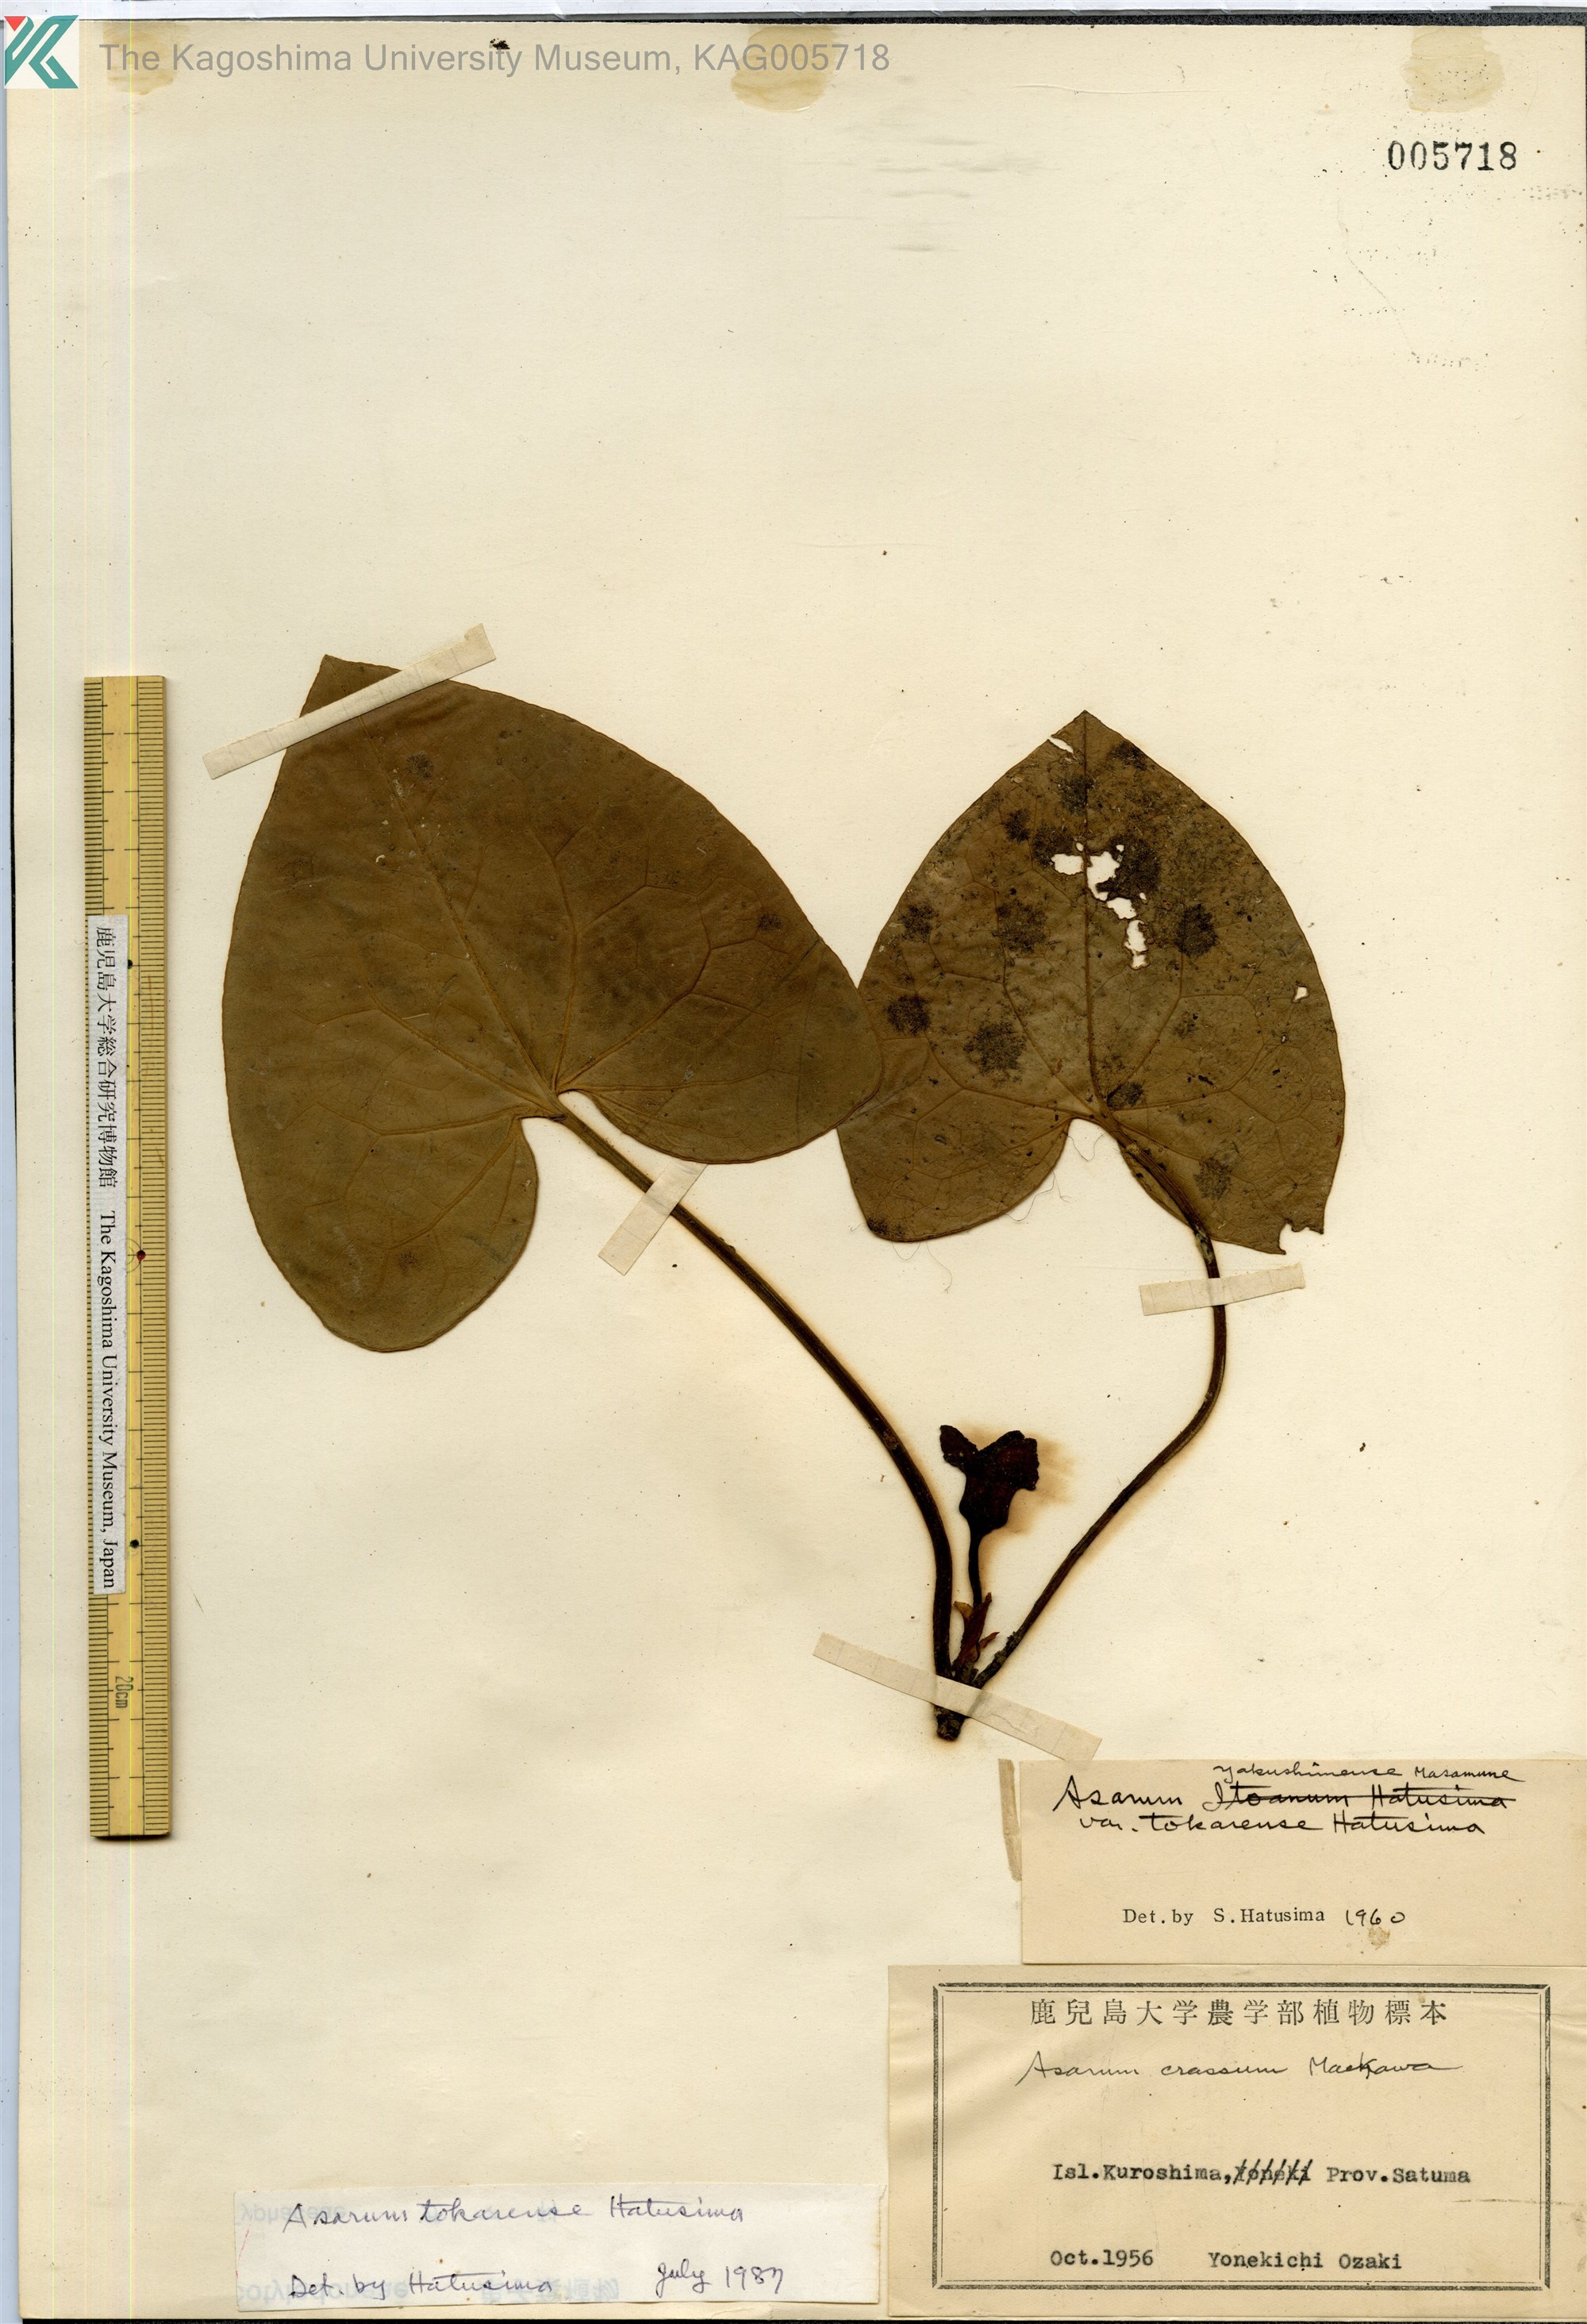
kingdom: Plantae
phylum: Tracheophyta
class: Magnoliopsida
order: Piperales
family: Aristolochiaceae
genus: Asarum
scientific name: Asarum tokarense
